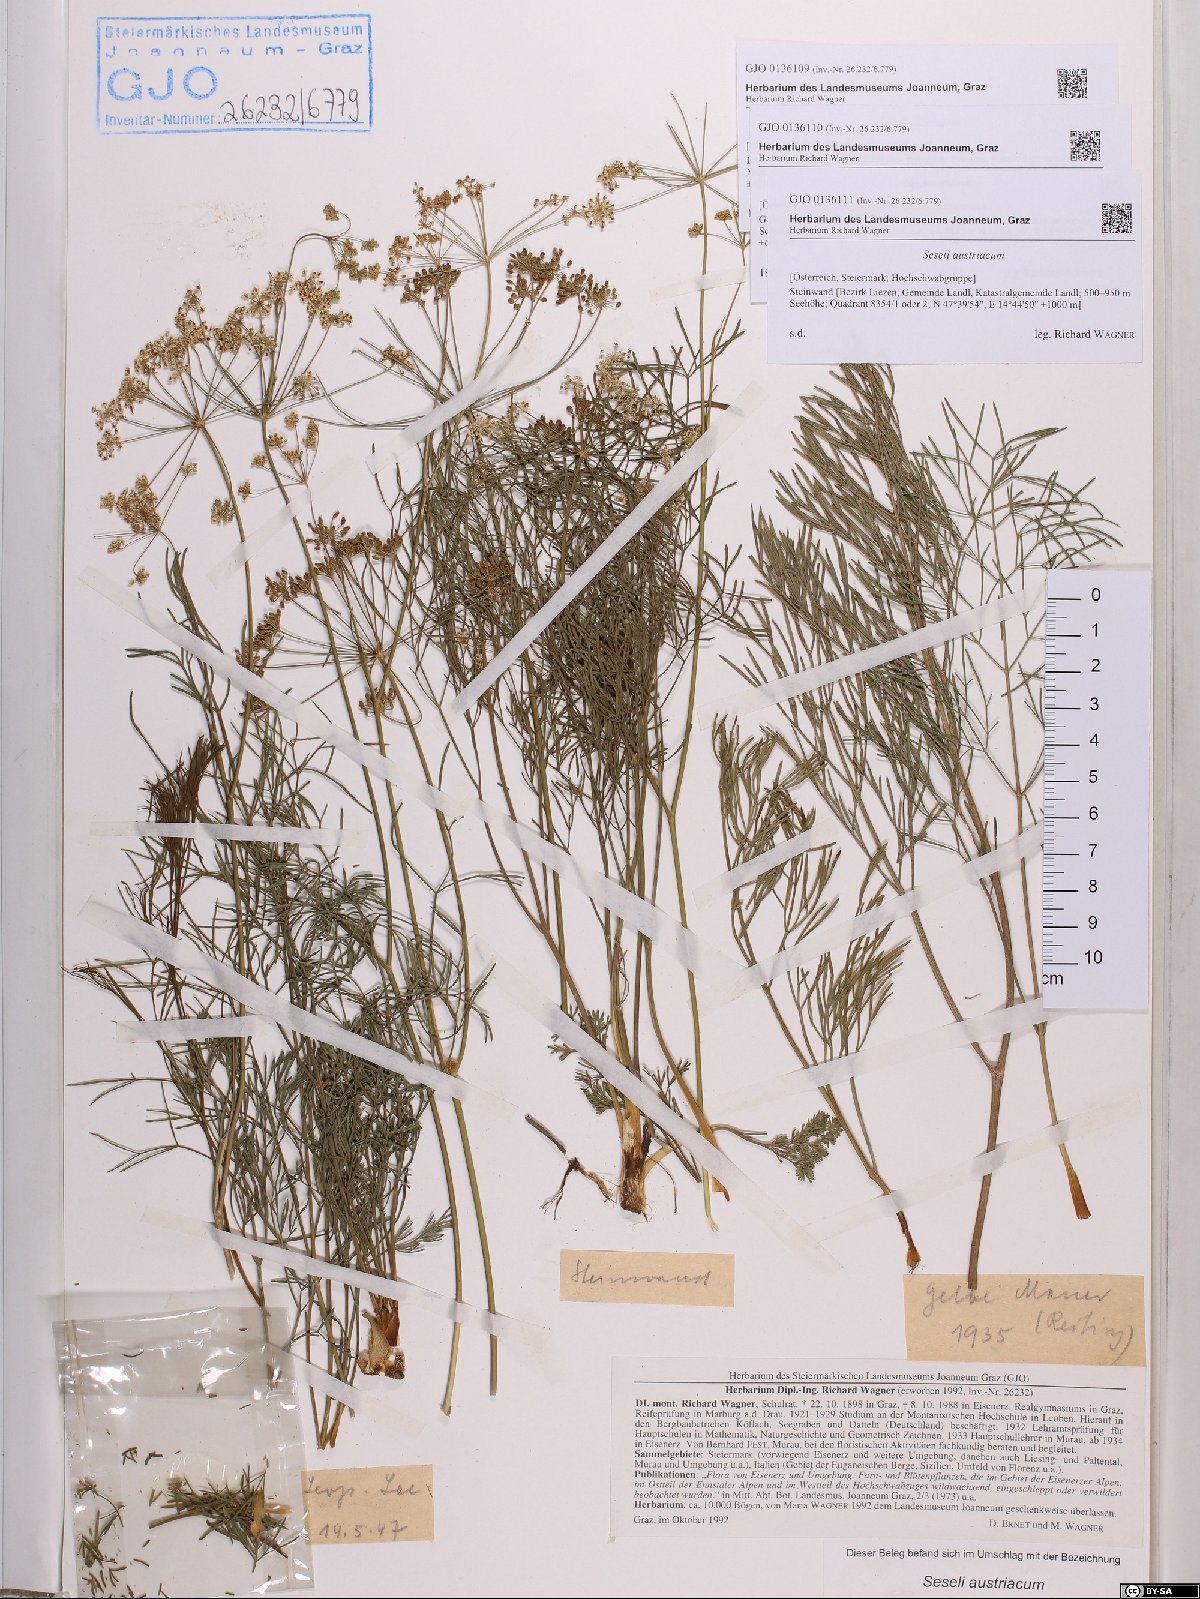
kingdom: Plantae
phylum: Tracheophyta
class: Magnoliopsida
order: Apiales
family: Apiaceae
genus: Seseli
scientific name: Seseli austriacum
